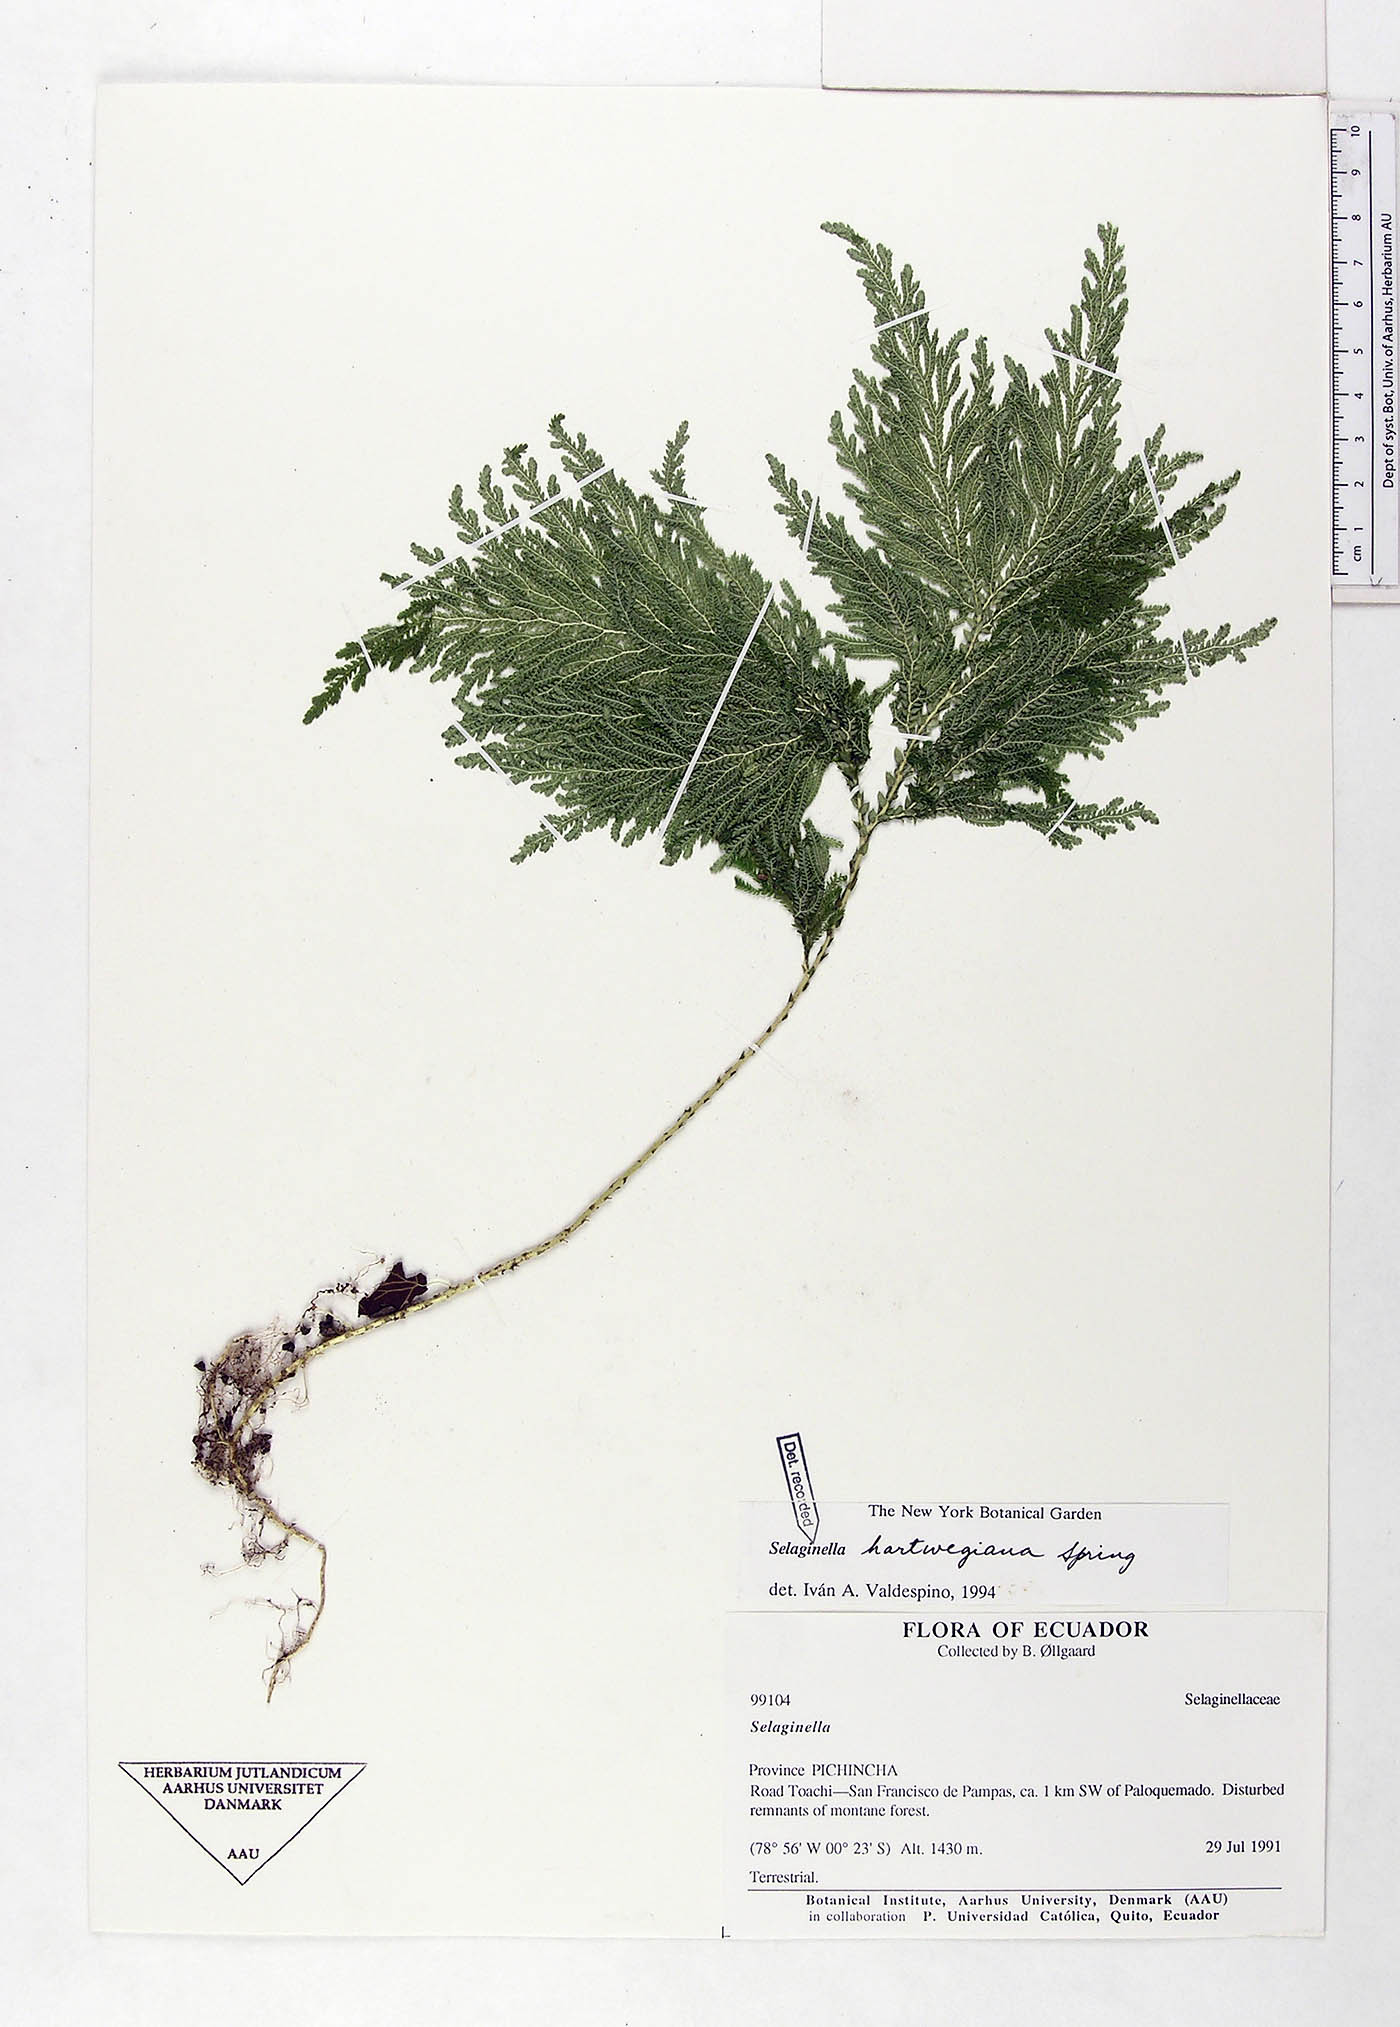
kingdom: Plantae
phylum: Tracheophyta
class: Lycopodiopsida
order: Selaginellales
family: Selaginellaceae
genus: Selaginella
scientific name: Selaginella hartwegiana
